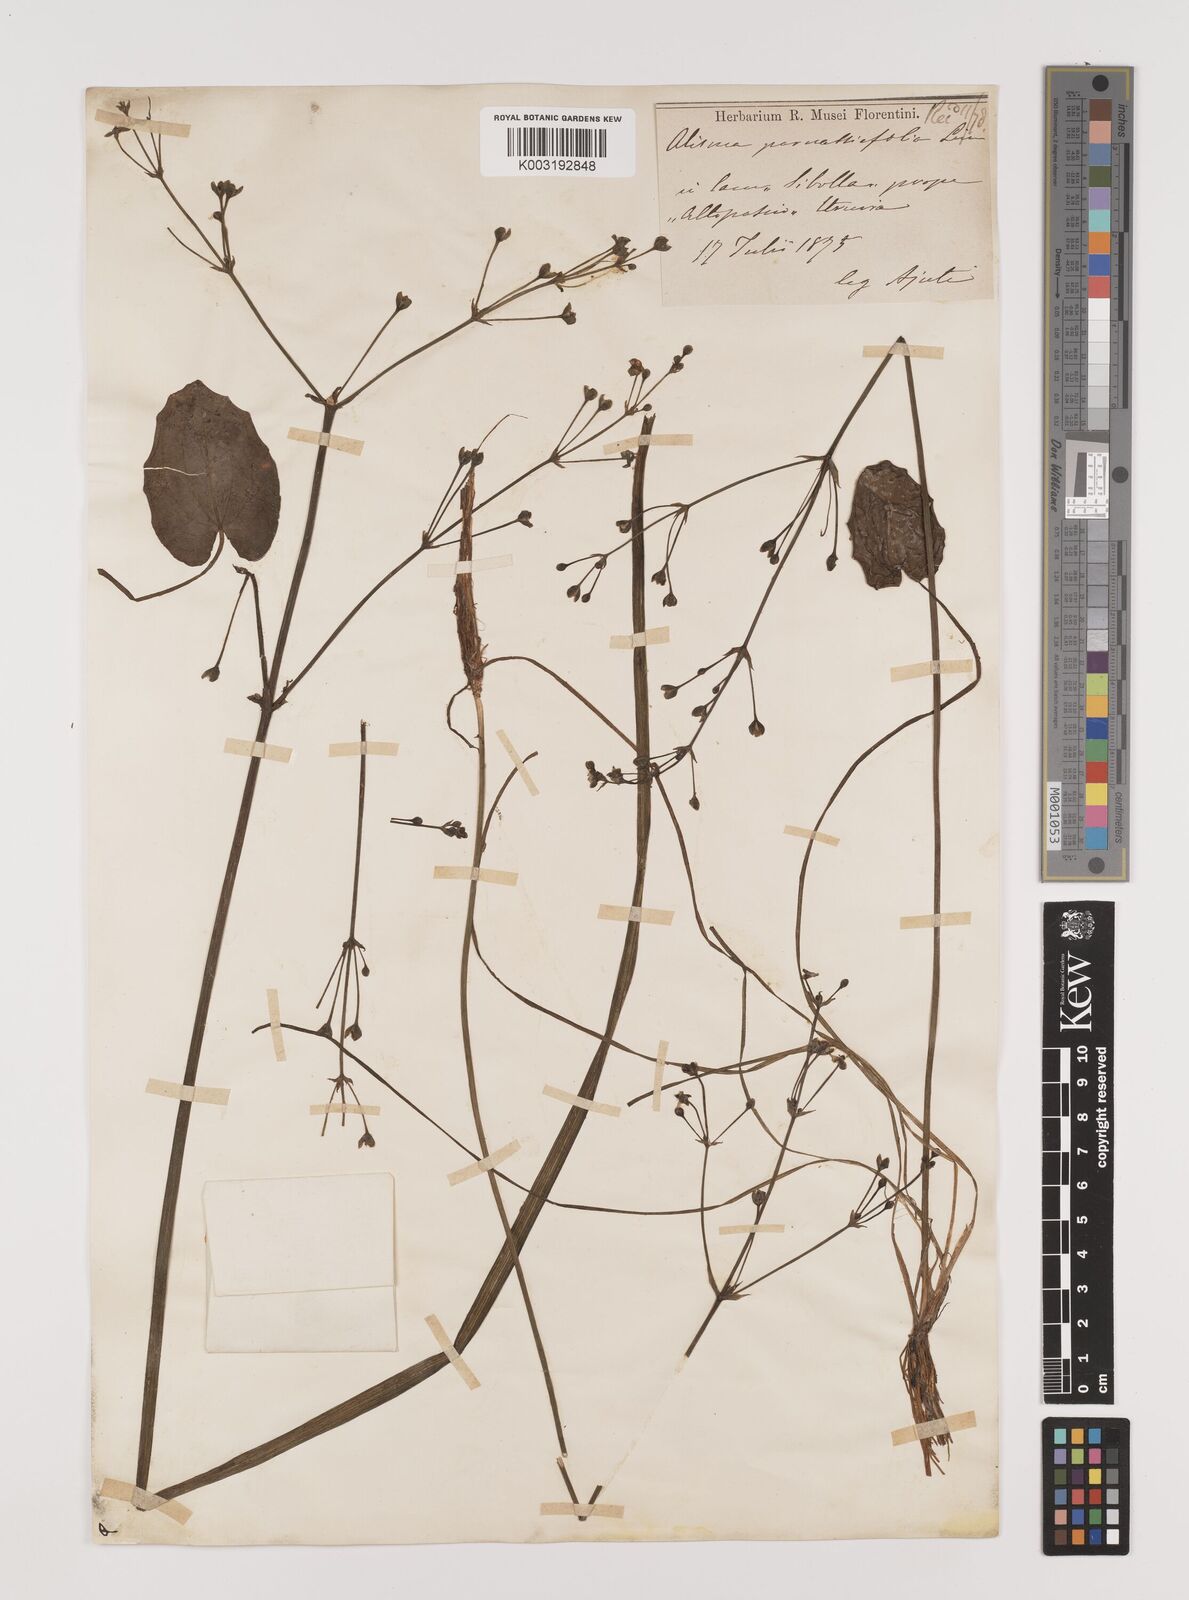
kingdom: Plantae
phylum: Tracheophyta
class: Liliopsida
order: Alismatales
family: Alismataceae
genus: Caldesia
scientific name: Caldesia parnassifolia
